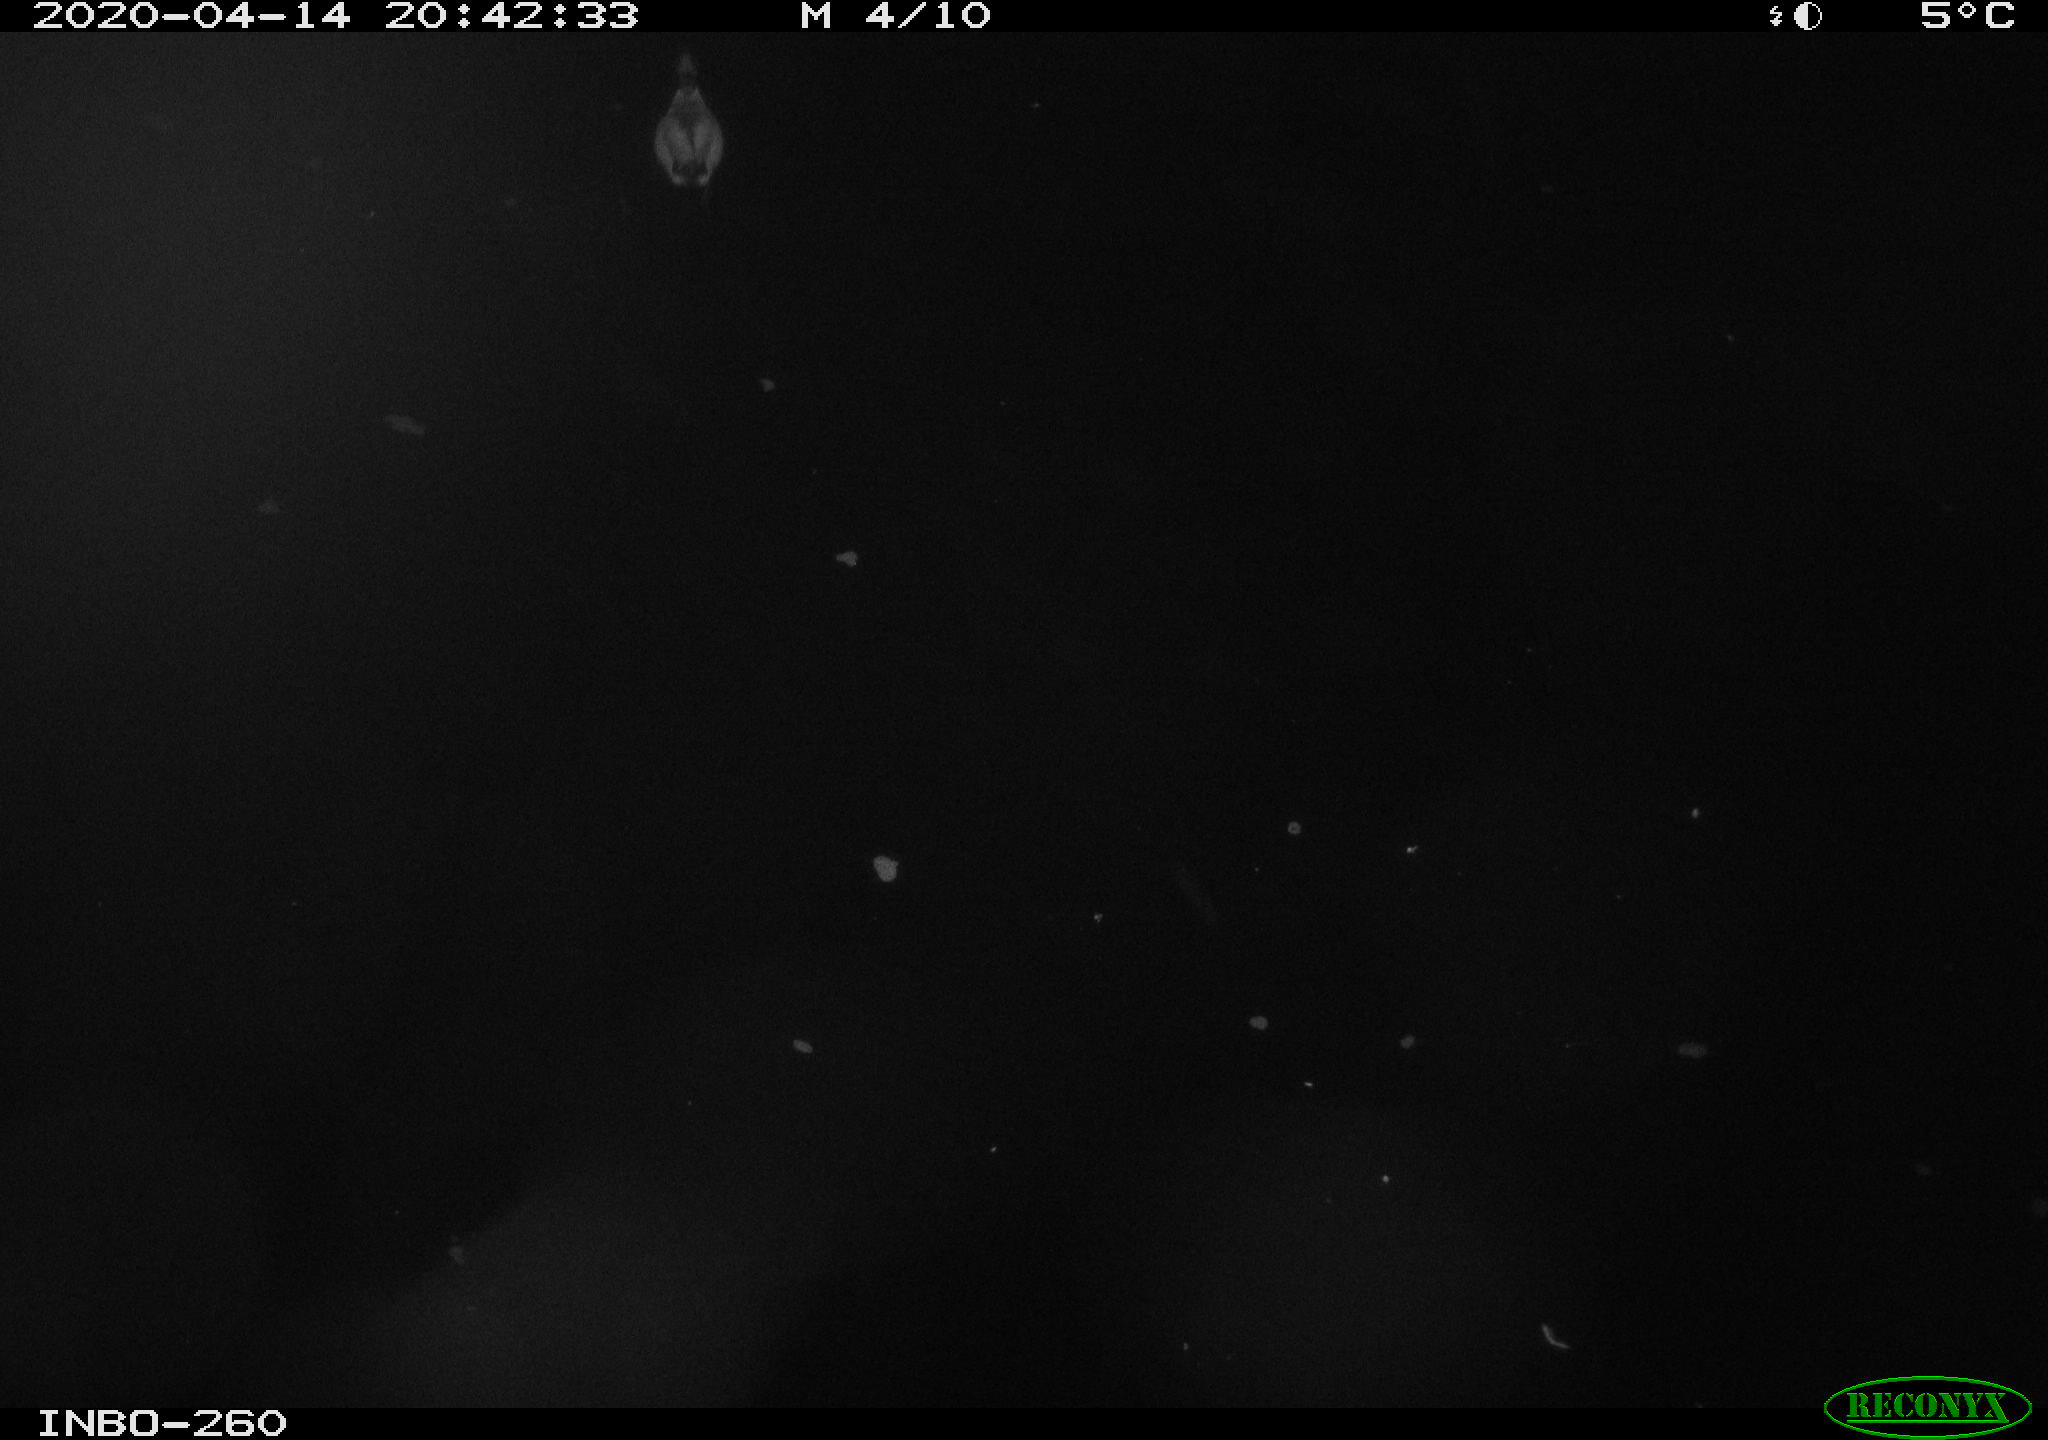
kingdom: Animalia
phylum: Chordata
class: Aves
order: Anseriformes
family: Anatidae
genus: Anas
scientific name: Anas platyrhynchos
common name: Mallard
